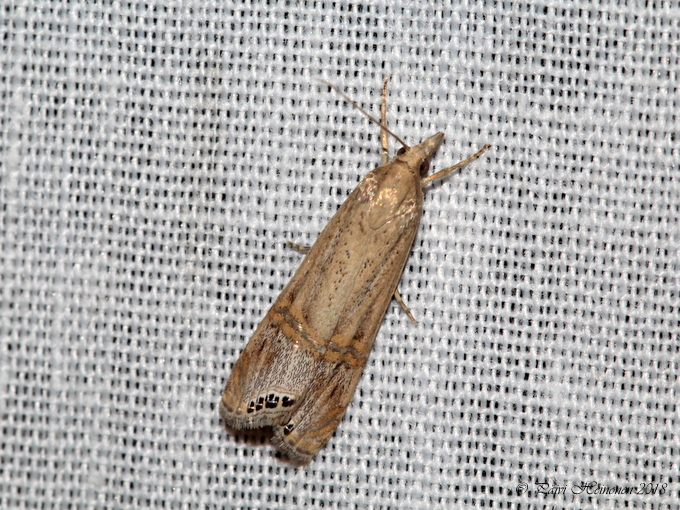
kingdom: Animalia
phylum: Arthropoda
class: Insecta
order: Lepidoptera
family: Crambidae
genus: Euchromius
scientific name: Euchromius ocellea
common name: Necklace veneer moth
